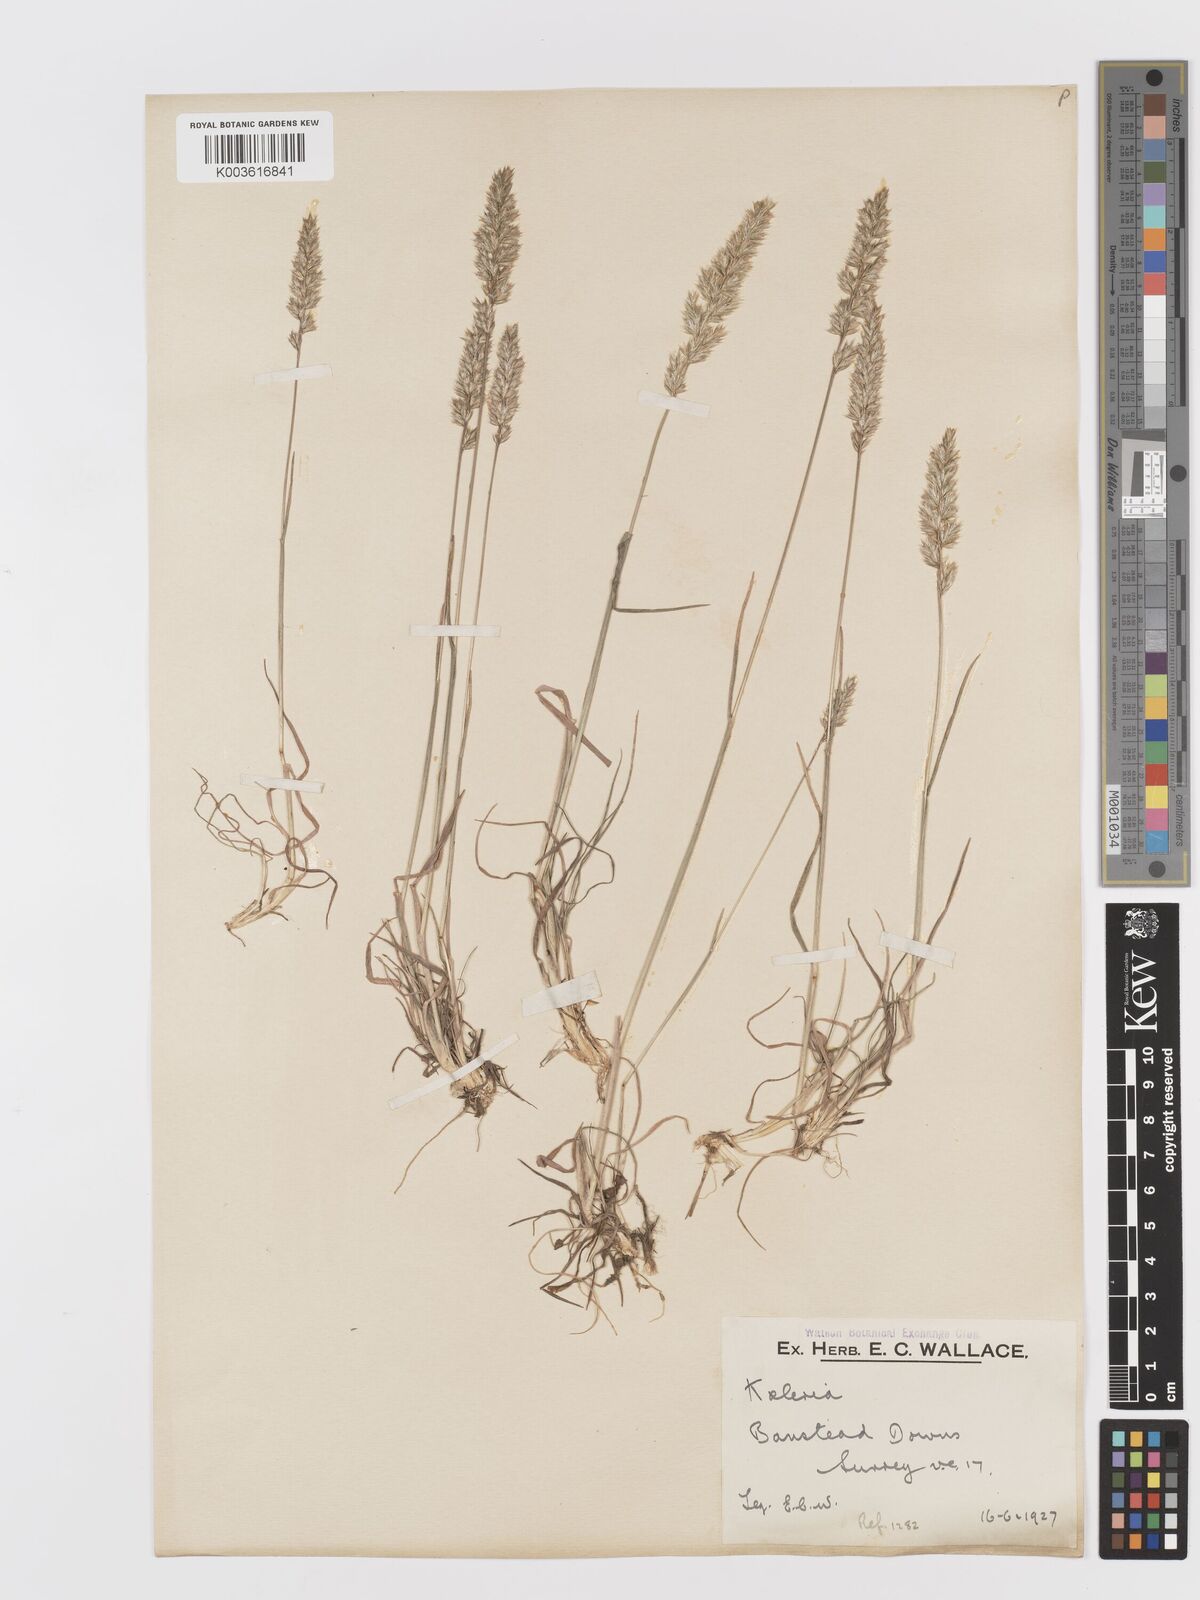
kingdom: Plantae
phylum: Tracheophyta
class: Liliopsida
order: Poales
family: Poaceae
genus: Koeleria
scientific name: Koeleria
